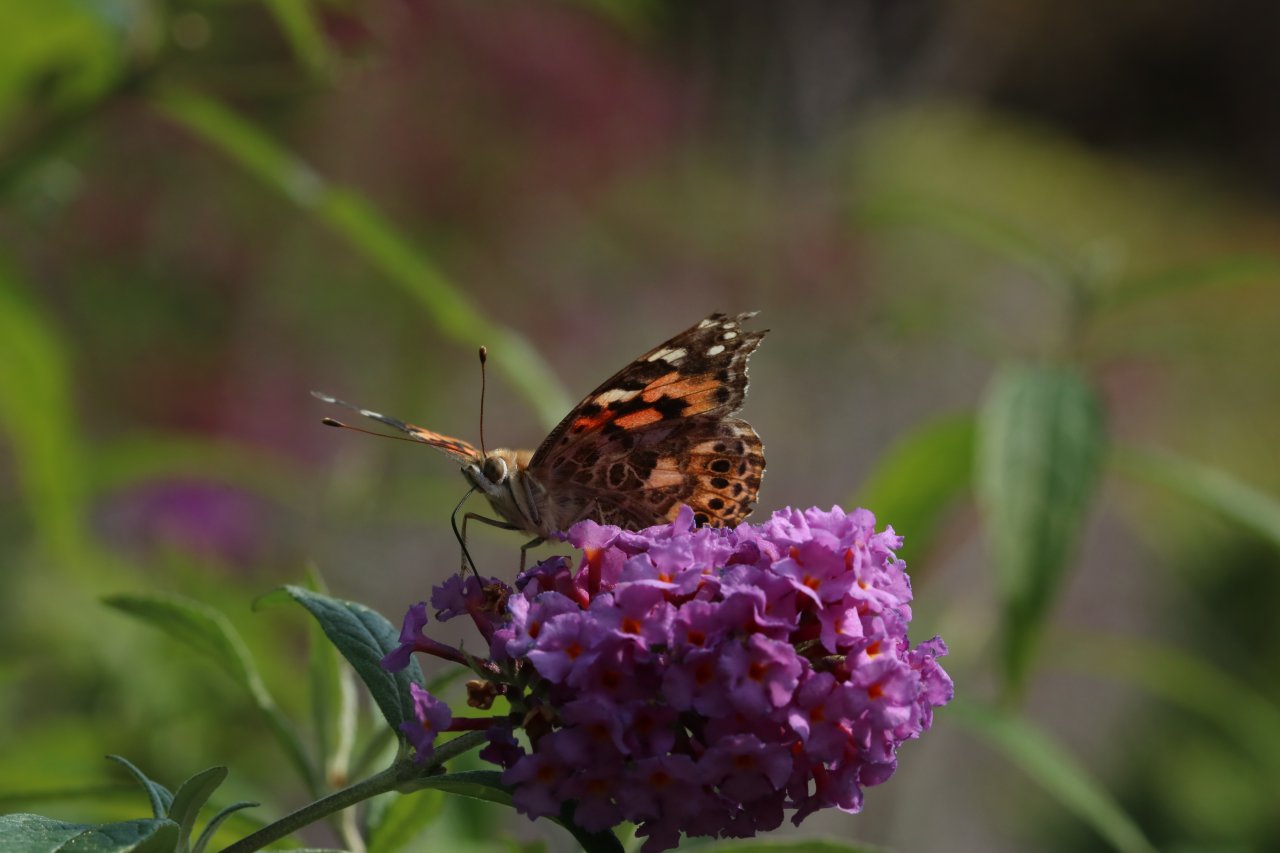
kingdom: Animalia
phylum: Arthropoda
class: Insecta
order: Lepidoptera
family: Nymphalidae
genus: Vanessa
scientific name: Vanessa cardui
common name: Painted Lady
